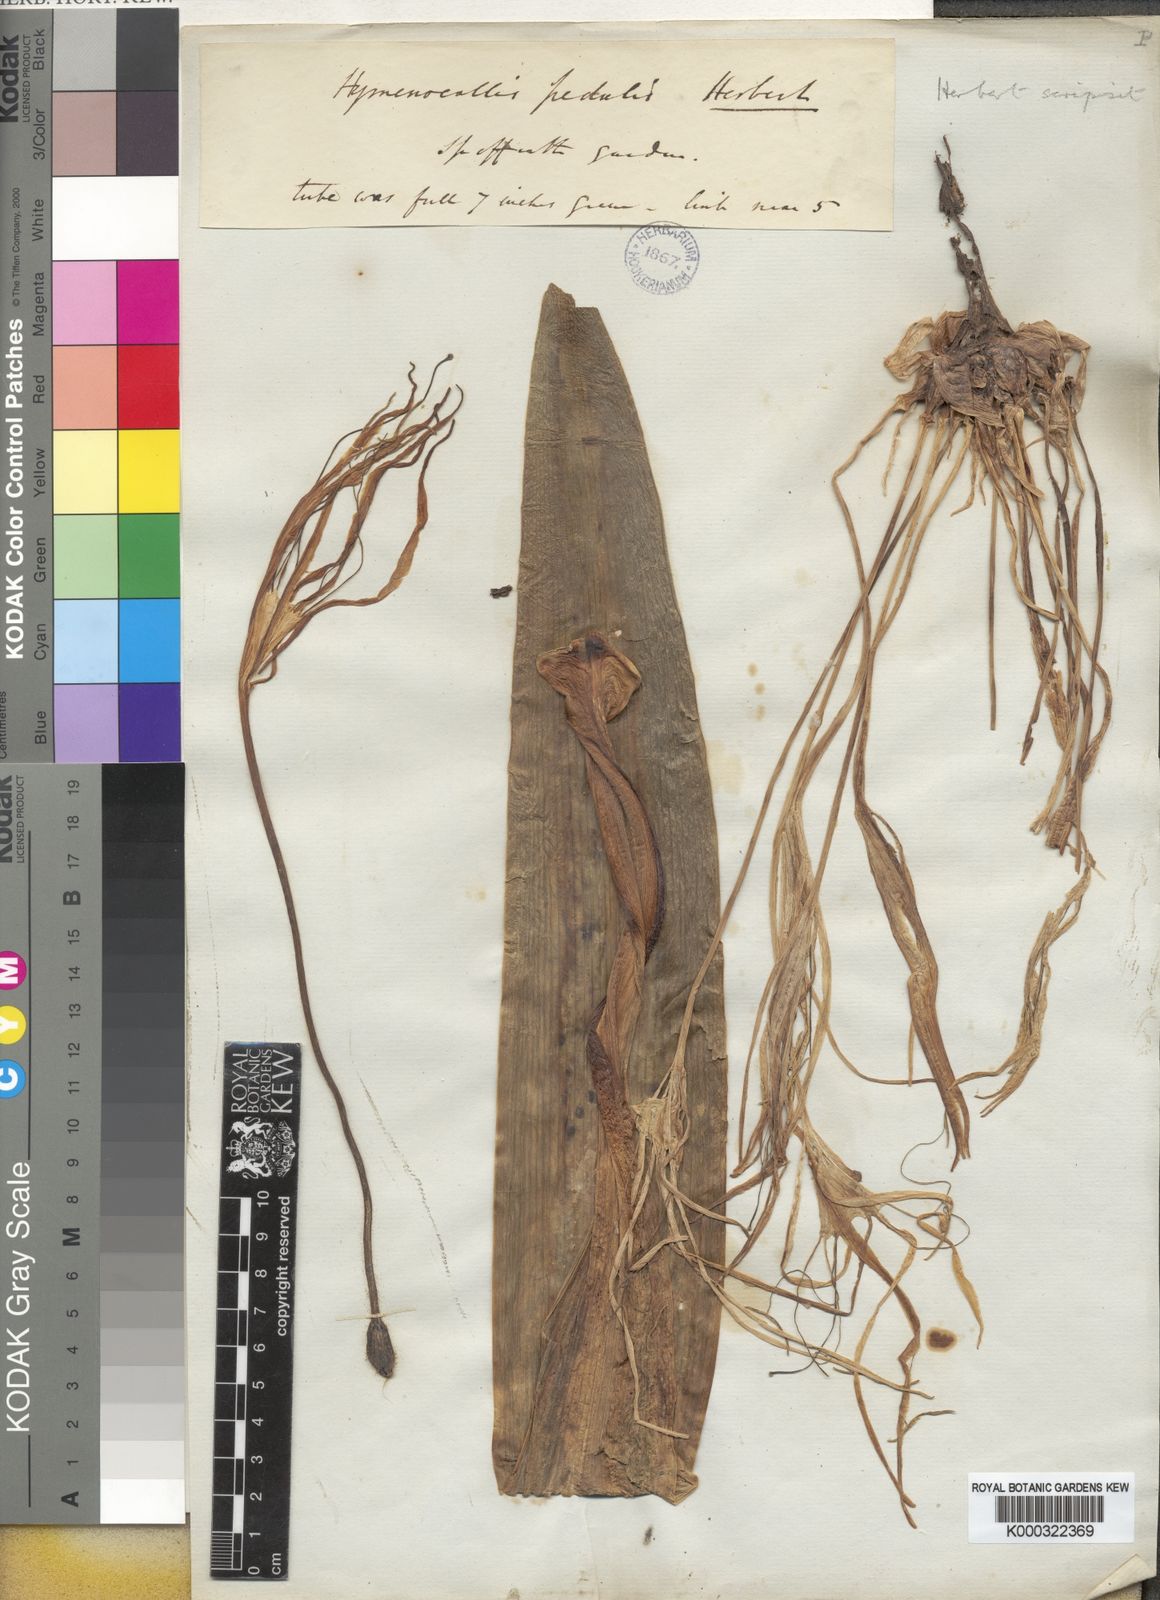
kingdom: Plantae
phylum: Tracheophyta
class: Liliopsida
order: Asparagales
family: Amaryllidaceae
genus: Hymenocallis
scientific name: Hymenocallis littoralis
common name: Beach spiderlily
